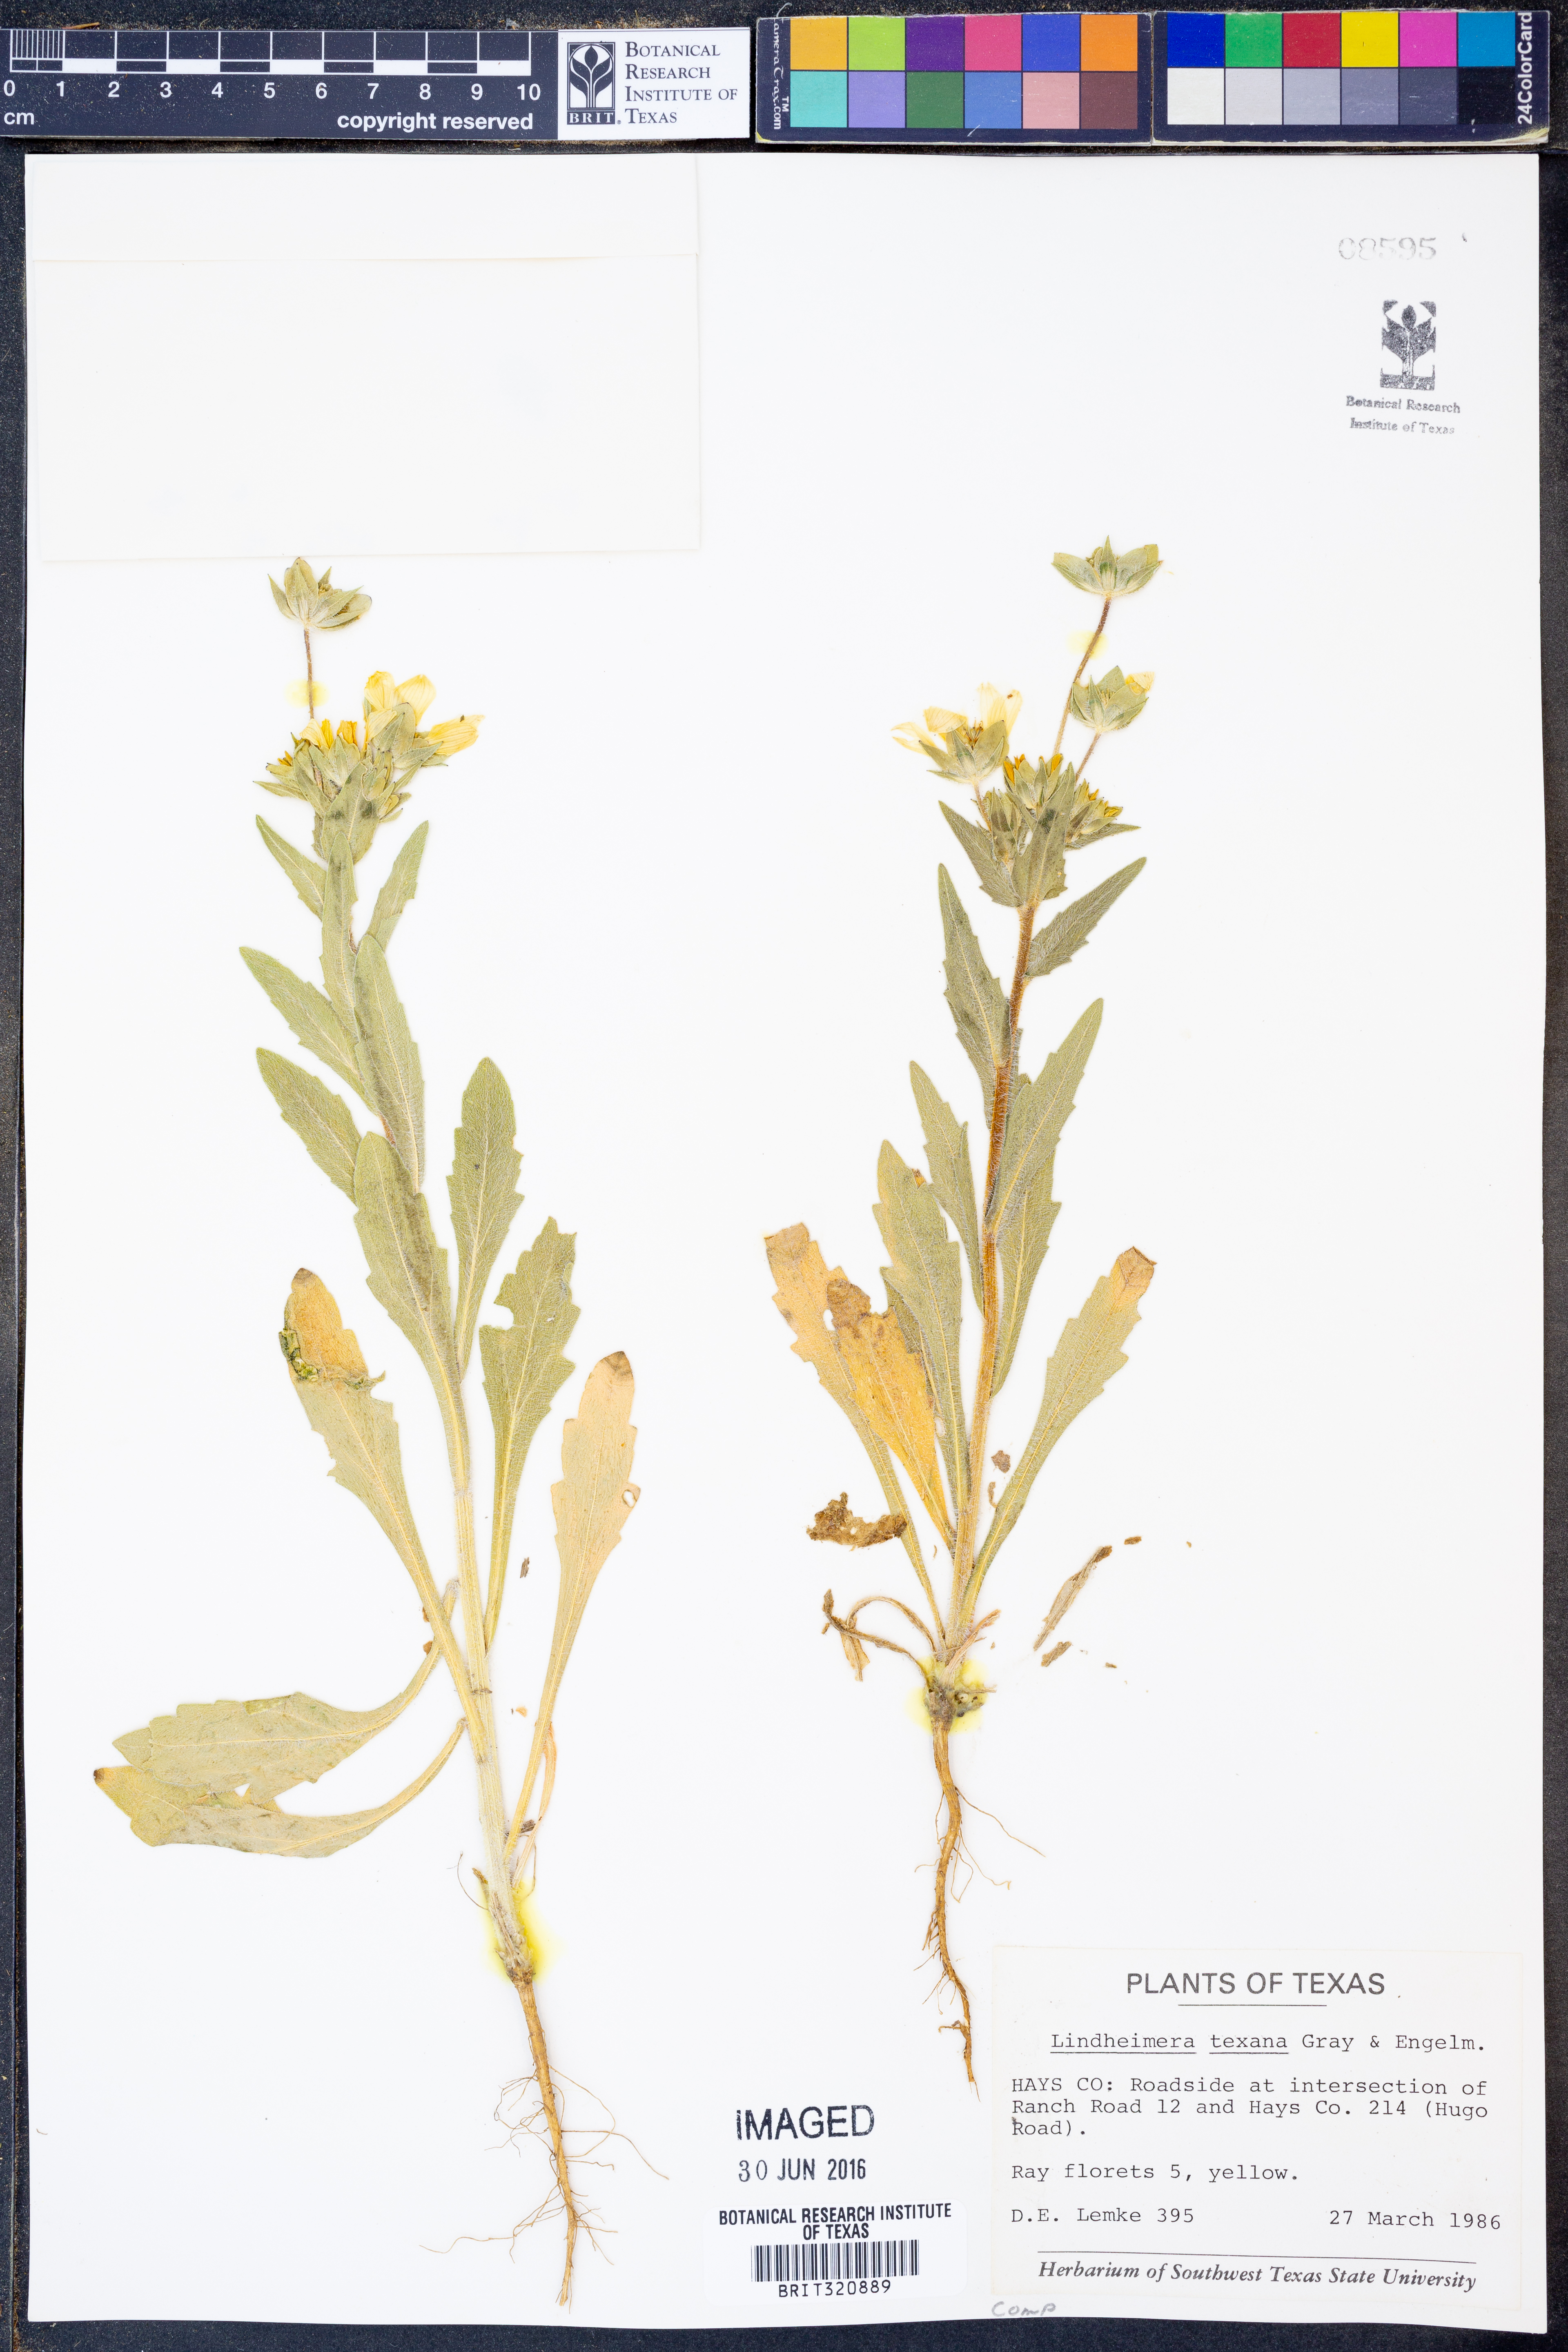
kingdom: Plantae
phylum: Tracheophyta
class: Magnoliopsida
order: Asterales
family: Asteraceae
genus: Lindheimera
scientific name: Lindheimera texana
